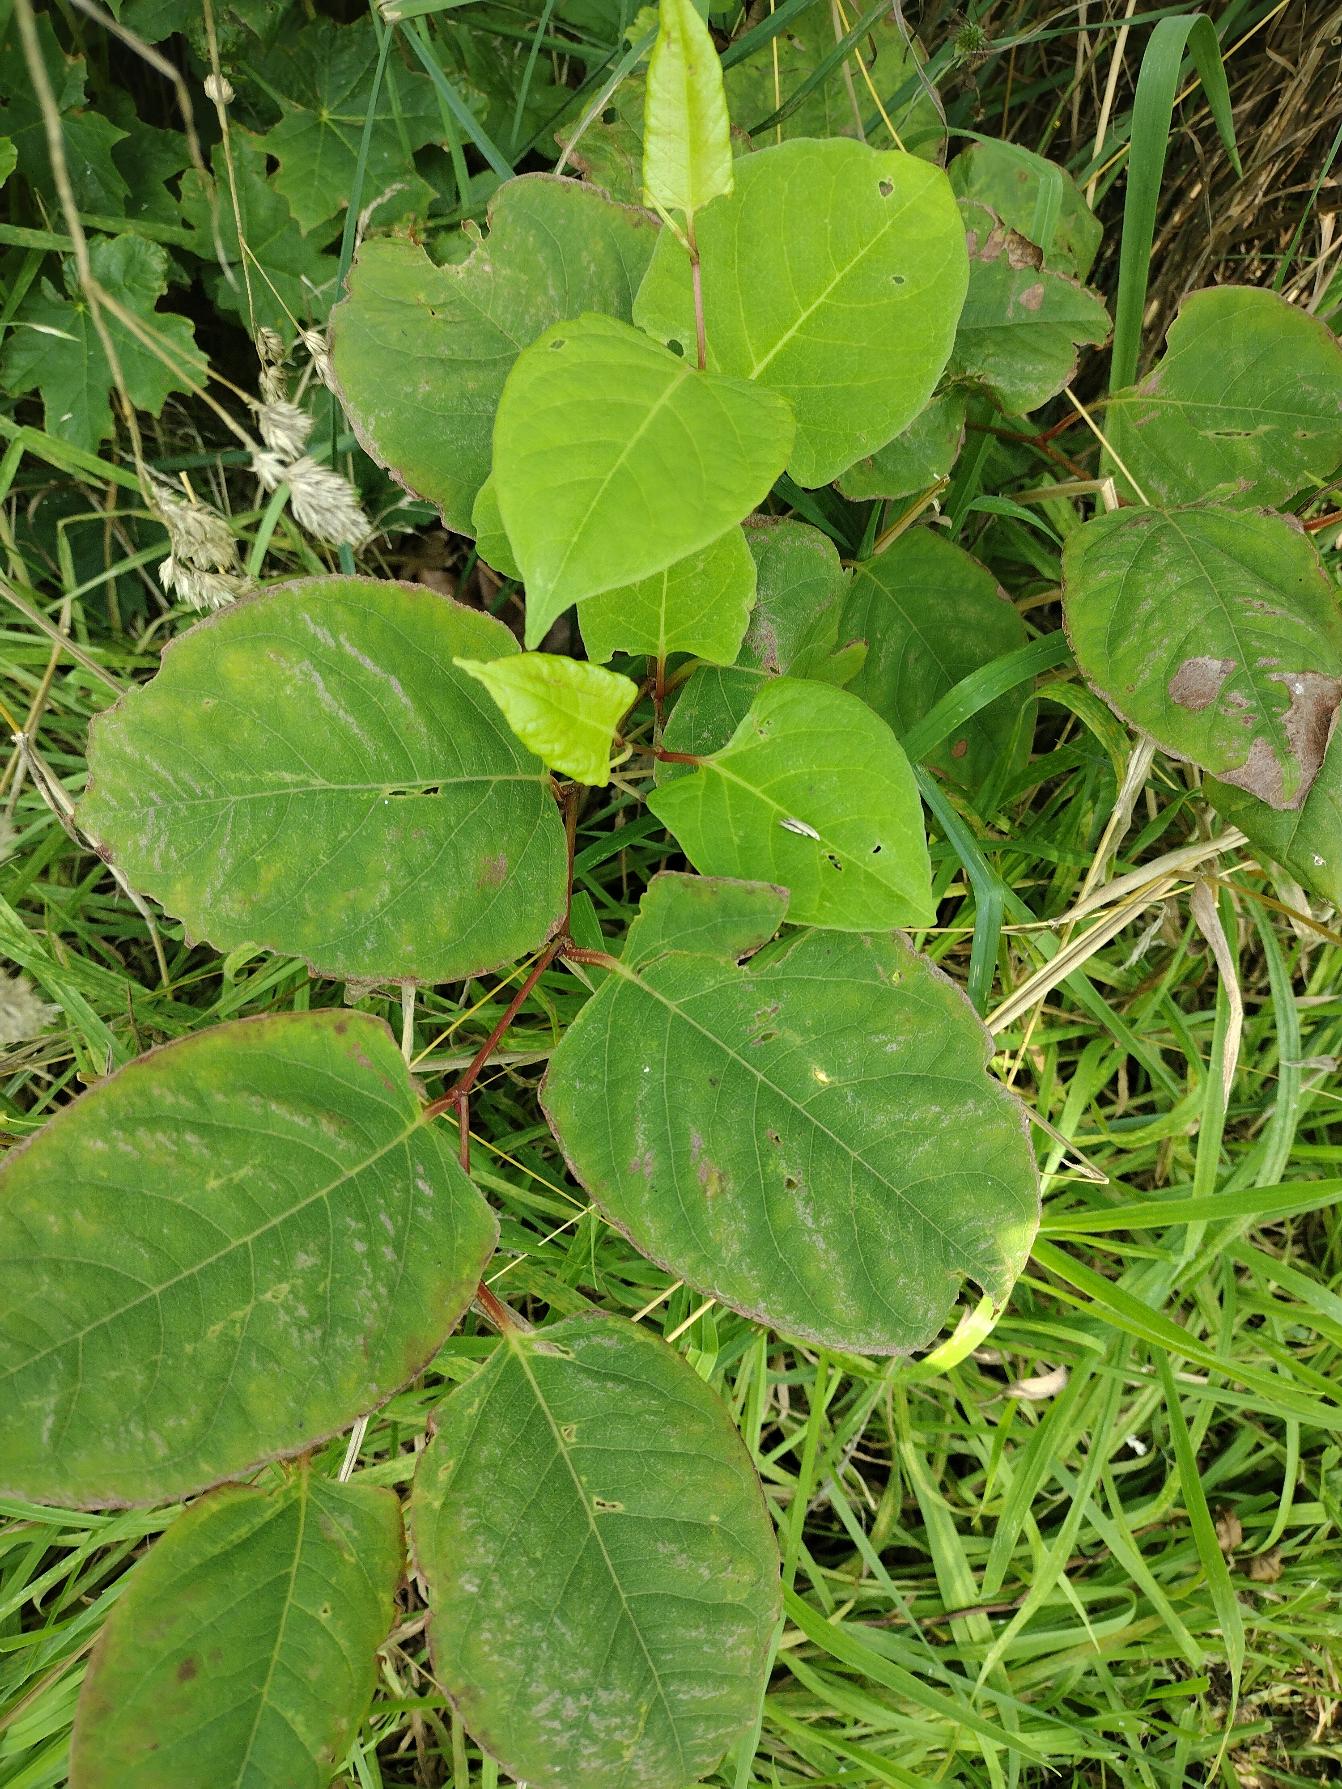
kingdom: Plantae
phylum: Tracheophyta
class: Magnoliopsida
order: Caryophyllales
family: Polygonaceae
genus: Reynoutria
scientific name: Reynoutria japonica
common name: Japan-pileurt
